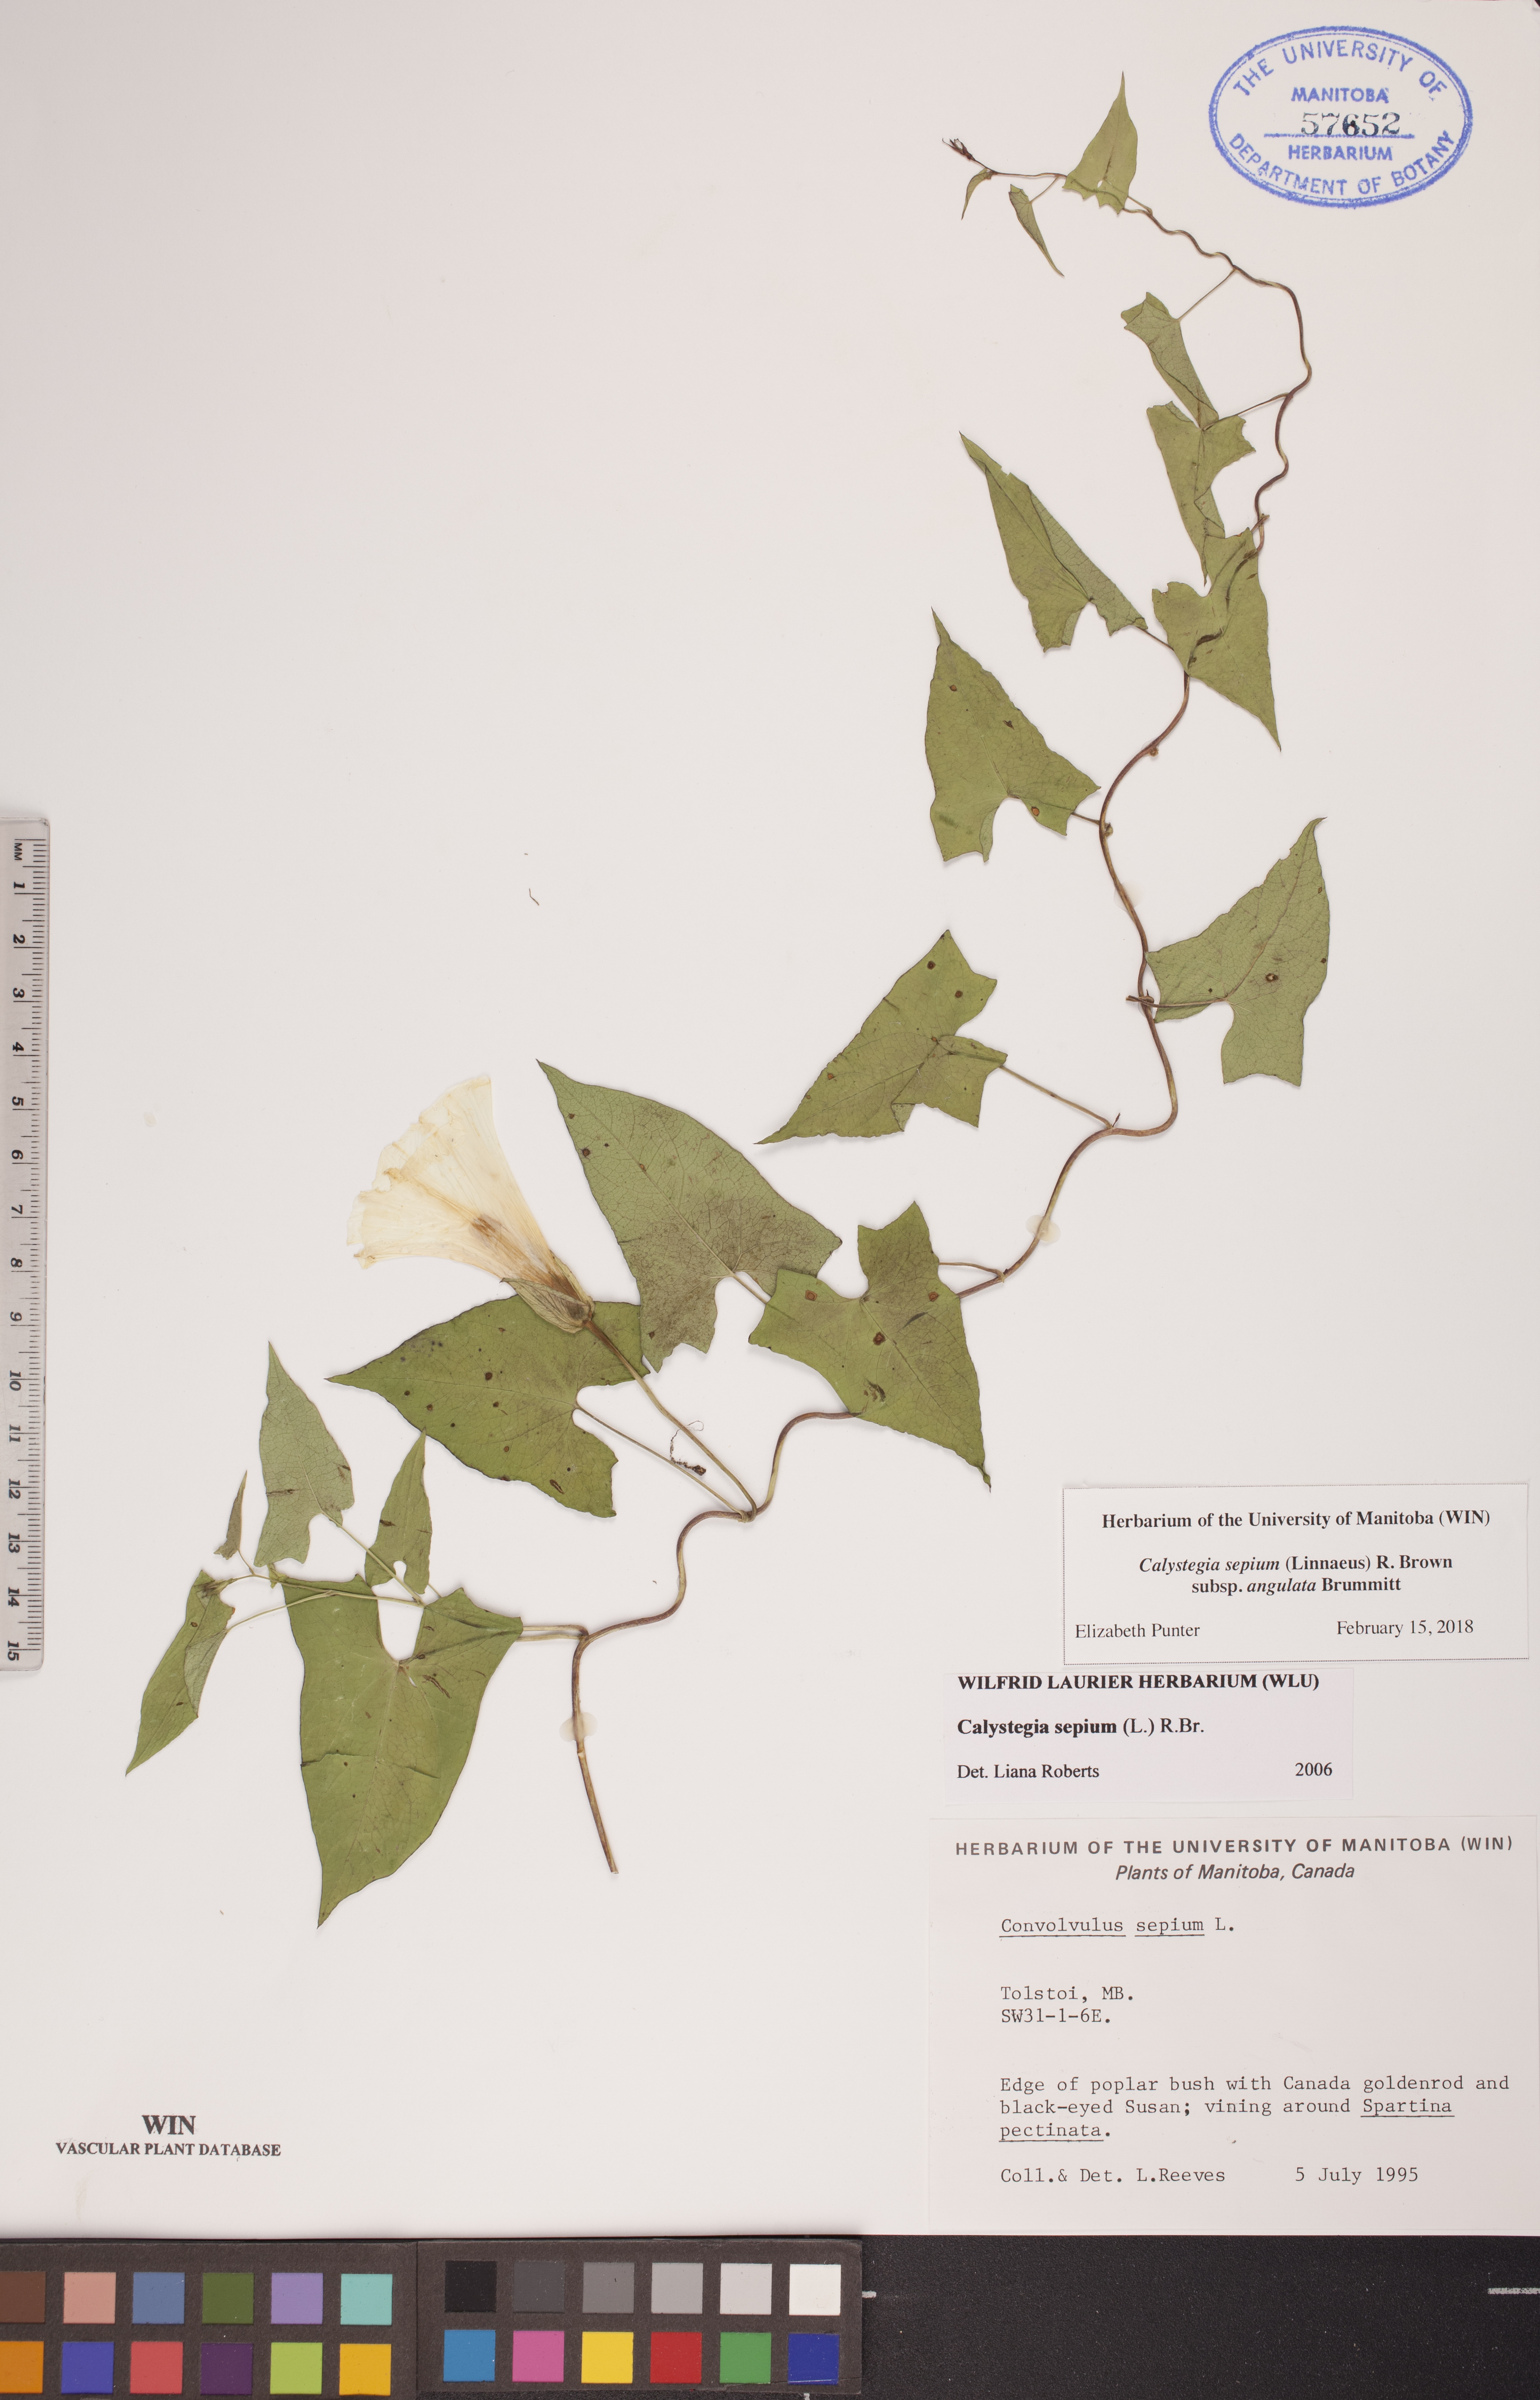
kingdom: Plantae
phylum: Tracheophyta
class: Magnoliopsida
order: Solanales
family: Convolvulaceae
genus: Calystegia
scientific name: Calystegia sepium
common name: Hedge bindweed
